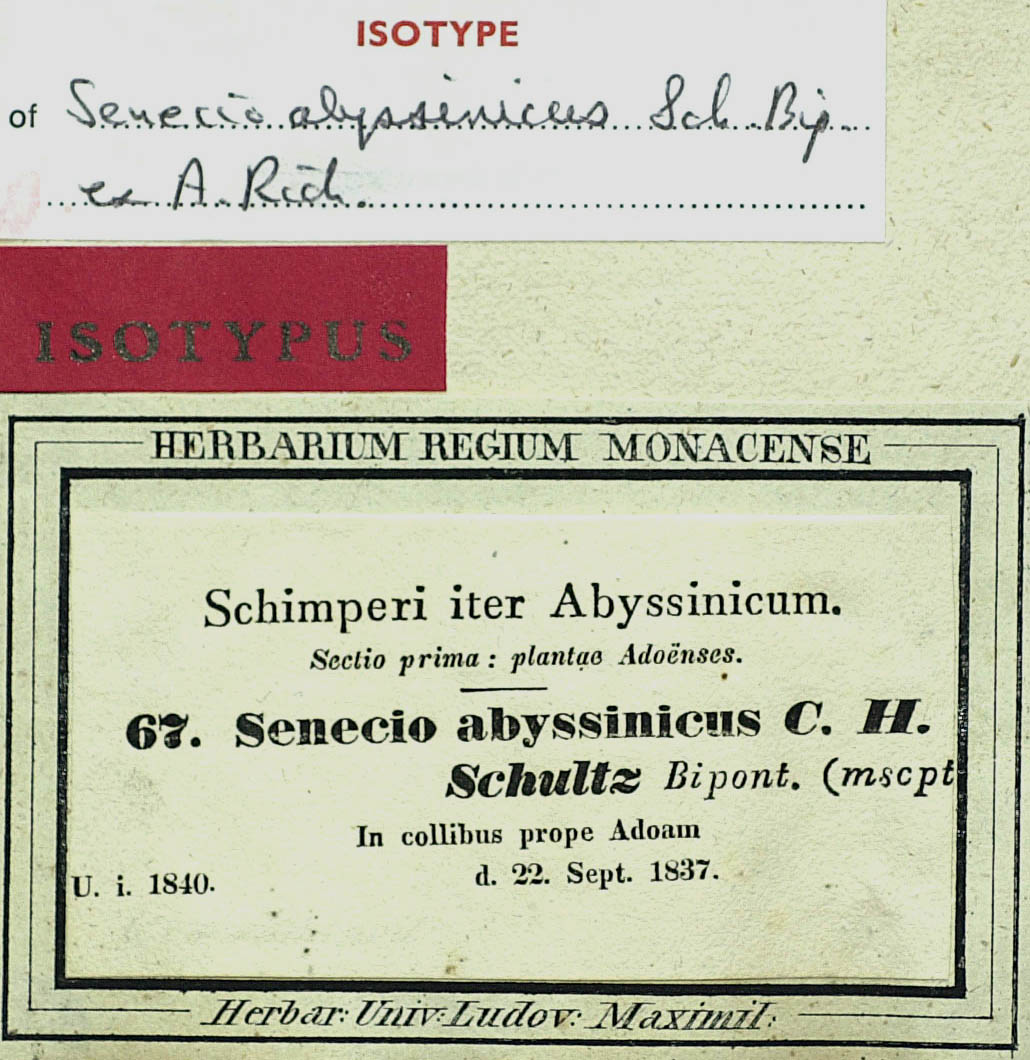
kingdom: Plantae
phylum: Tracheophyta
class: Magnoliopsida
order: Asterales
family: Asteraceae
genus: Emilia
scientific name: Emilia abyssinica
